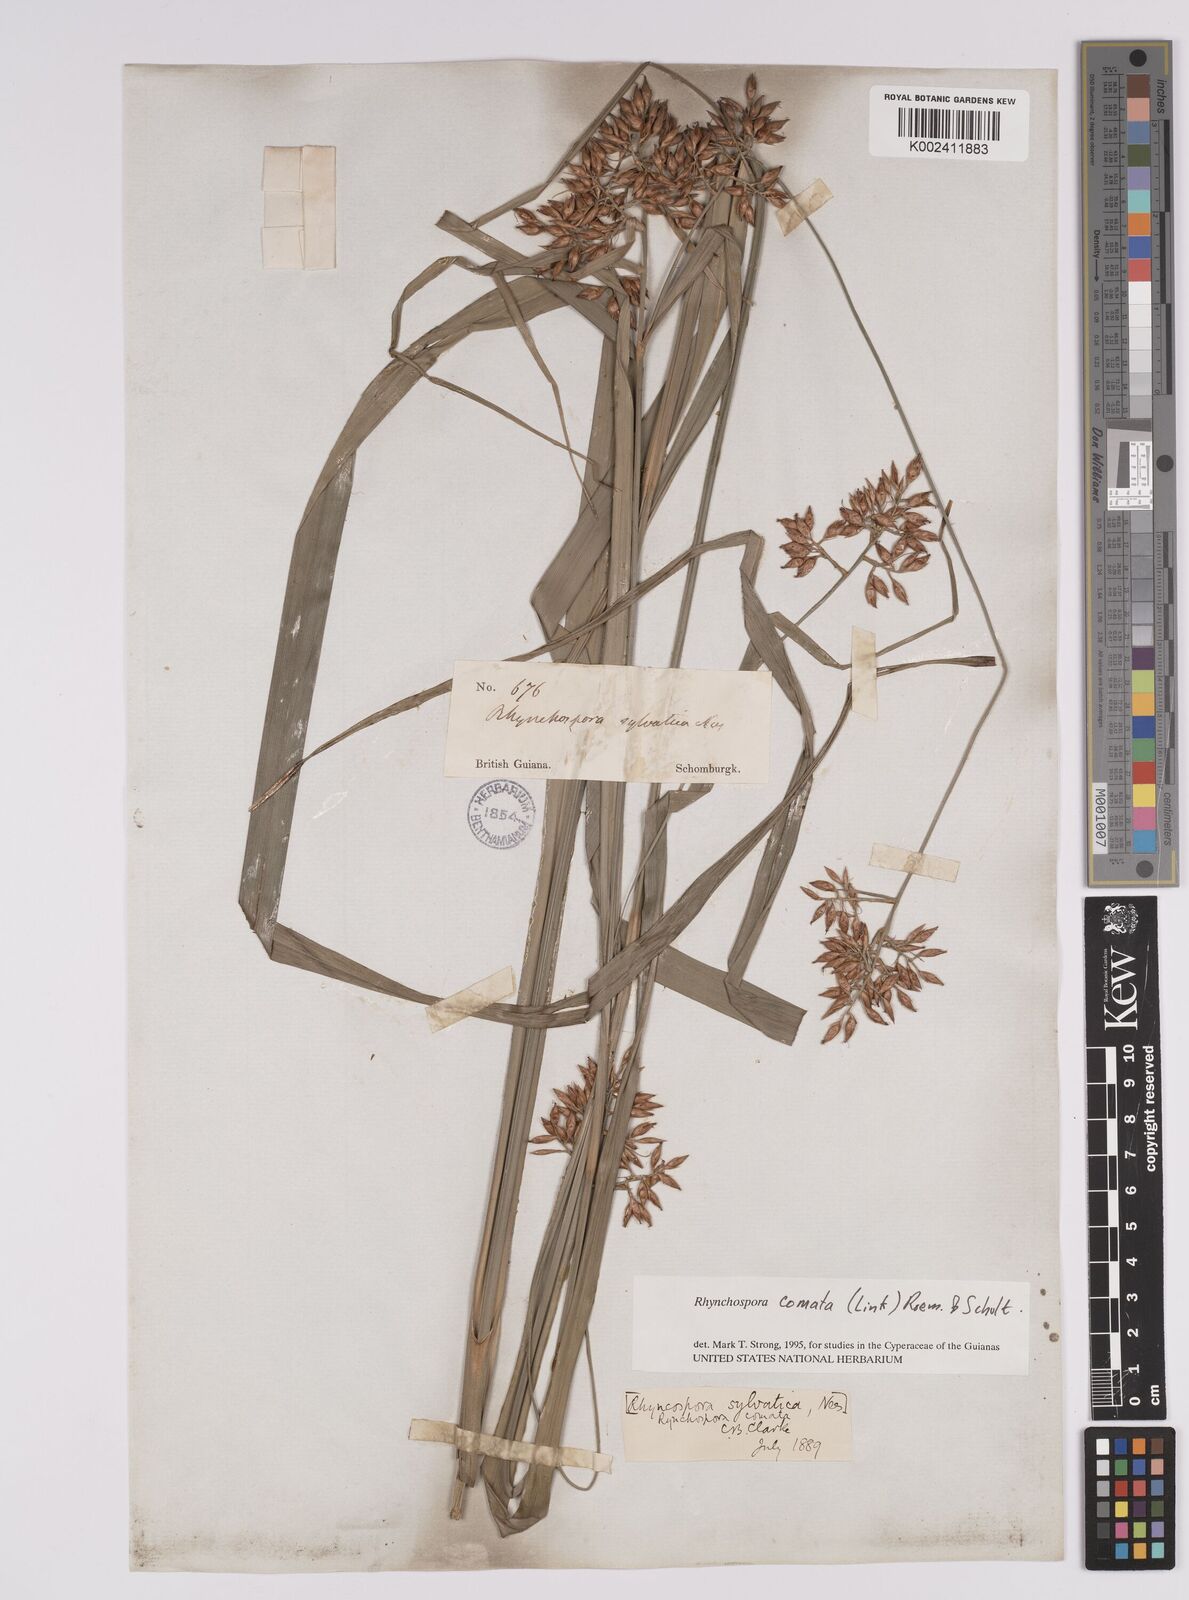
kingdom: Plantae
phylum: Tracheophyta
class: Liliopsida
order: Poales
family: Cyperaceae
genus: Rhynchospora
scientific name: Rhynchospora comata
